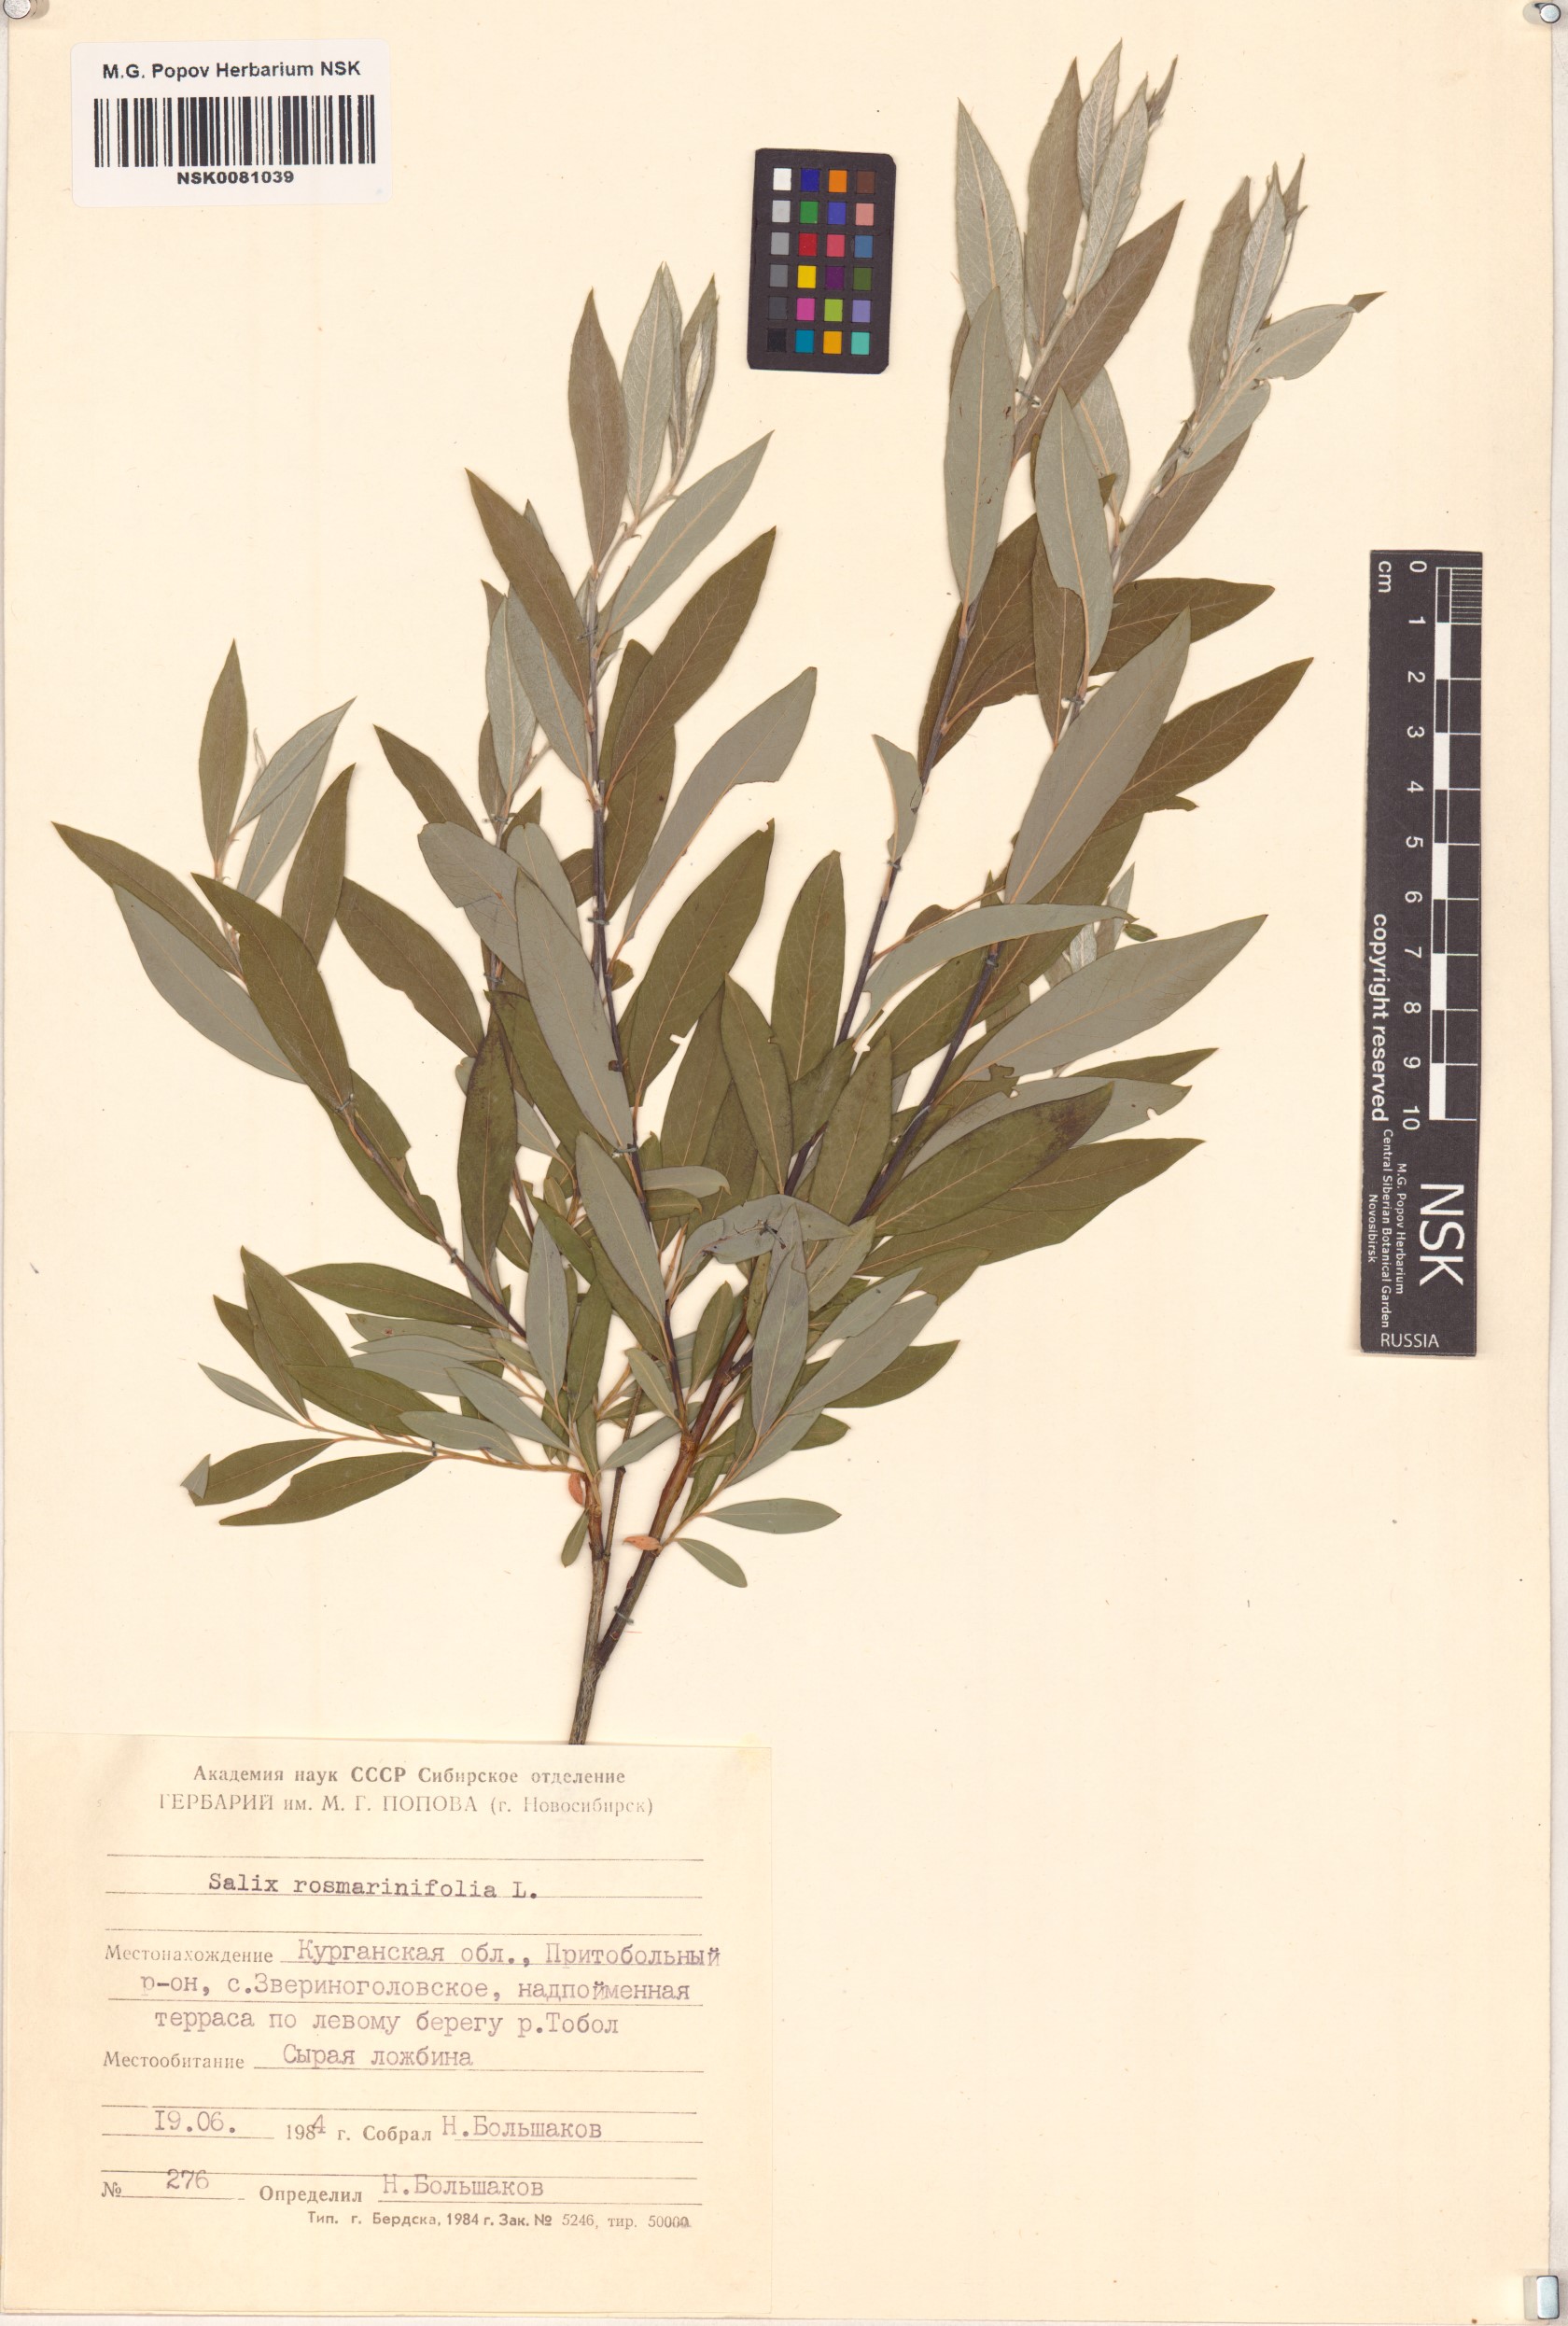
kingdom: Plantae
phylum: Tracheophyta
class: Magnoliopsida
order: Malpighiales
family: Salicaceae
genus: Salix
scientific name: Salix rosmarinifolia
